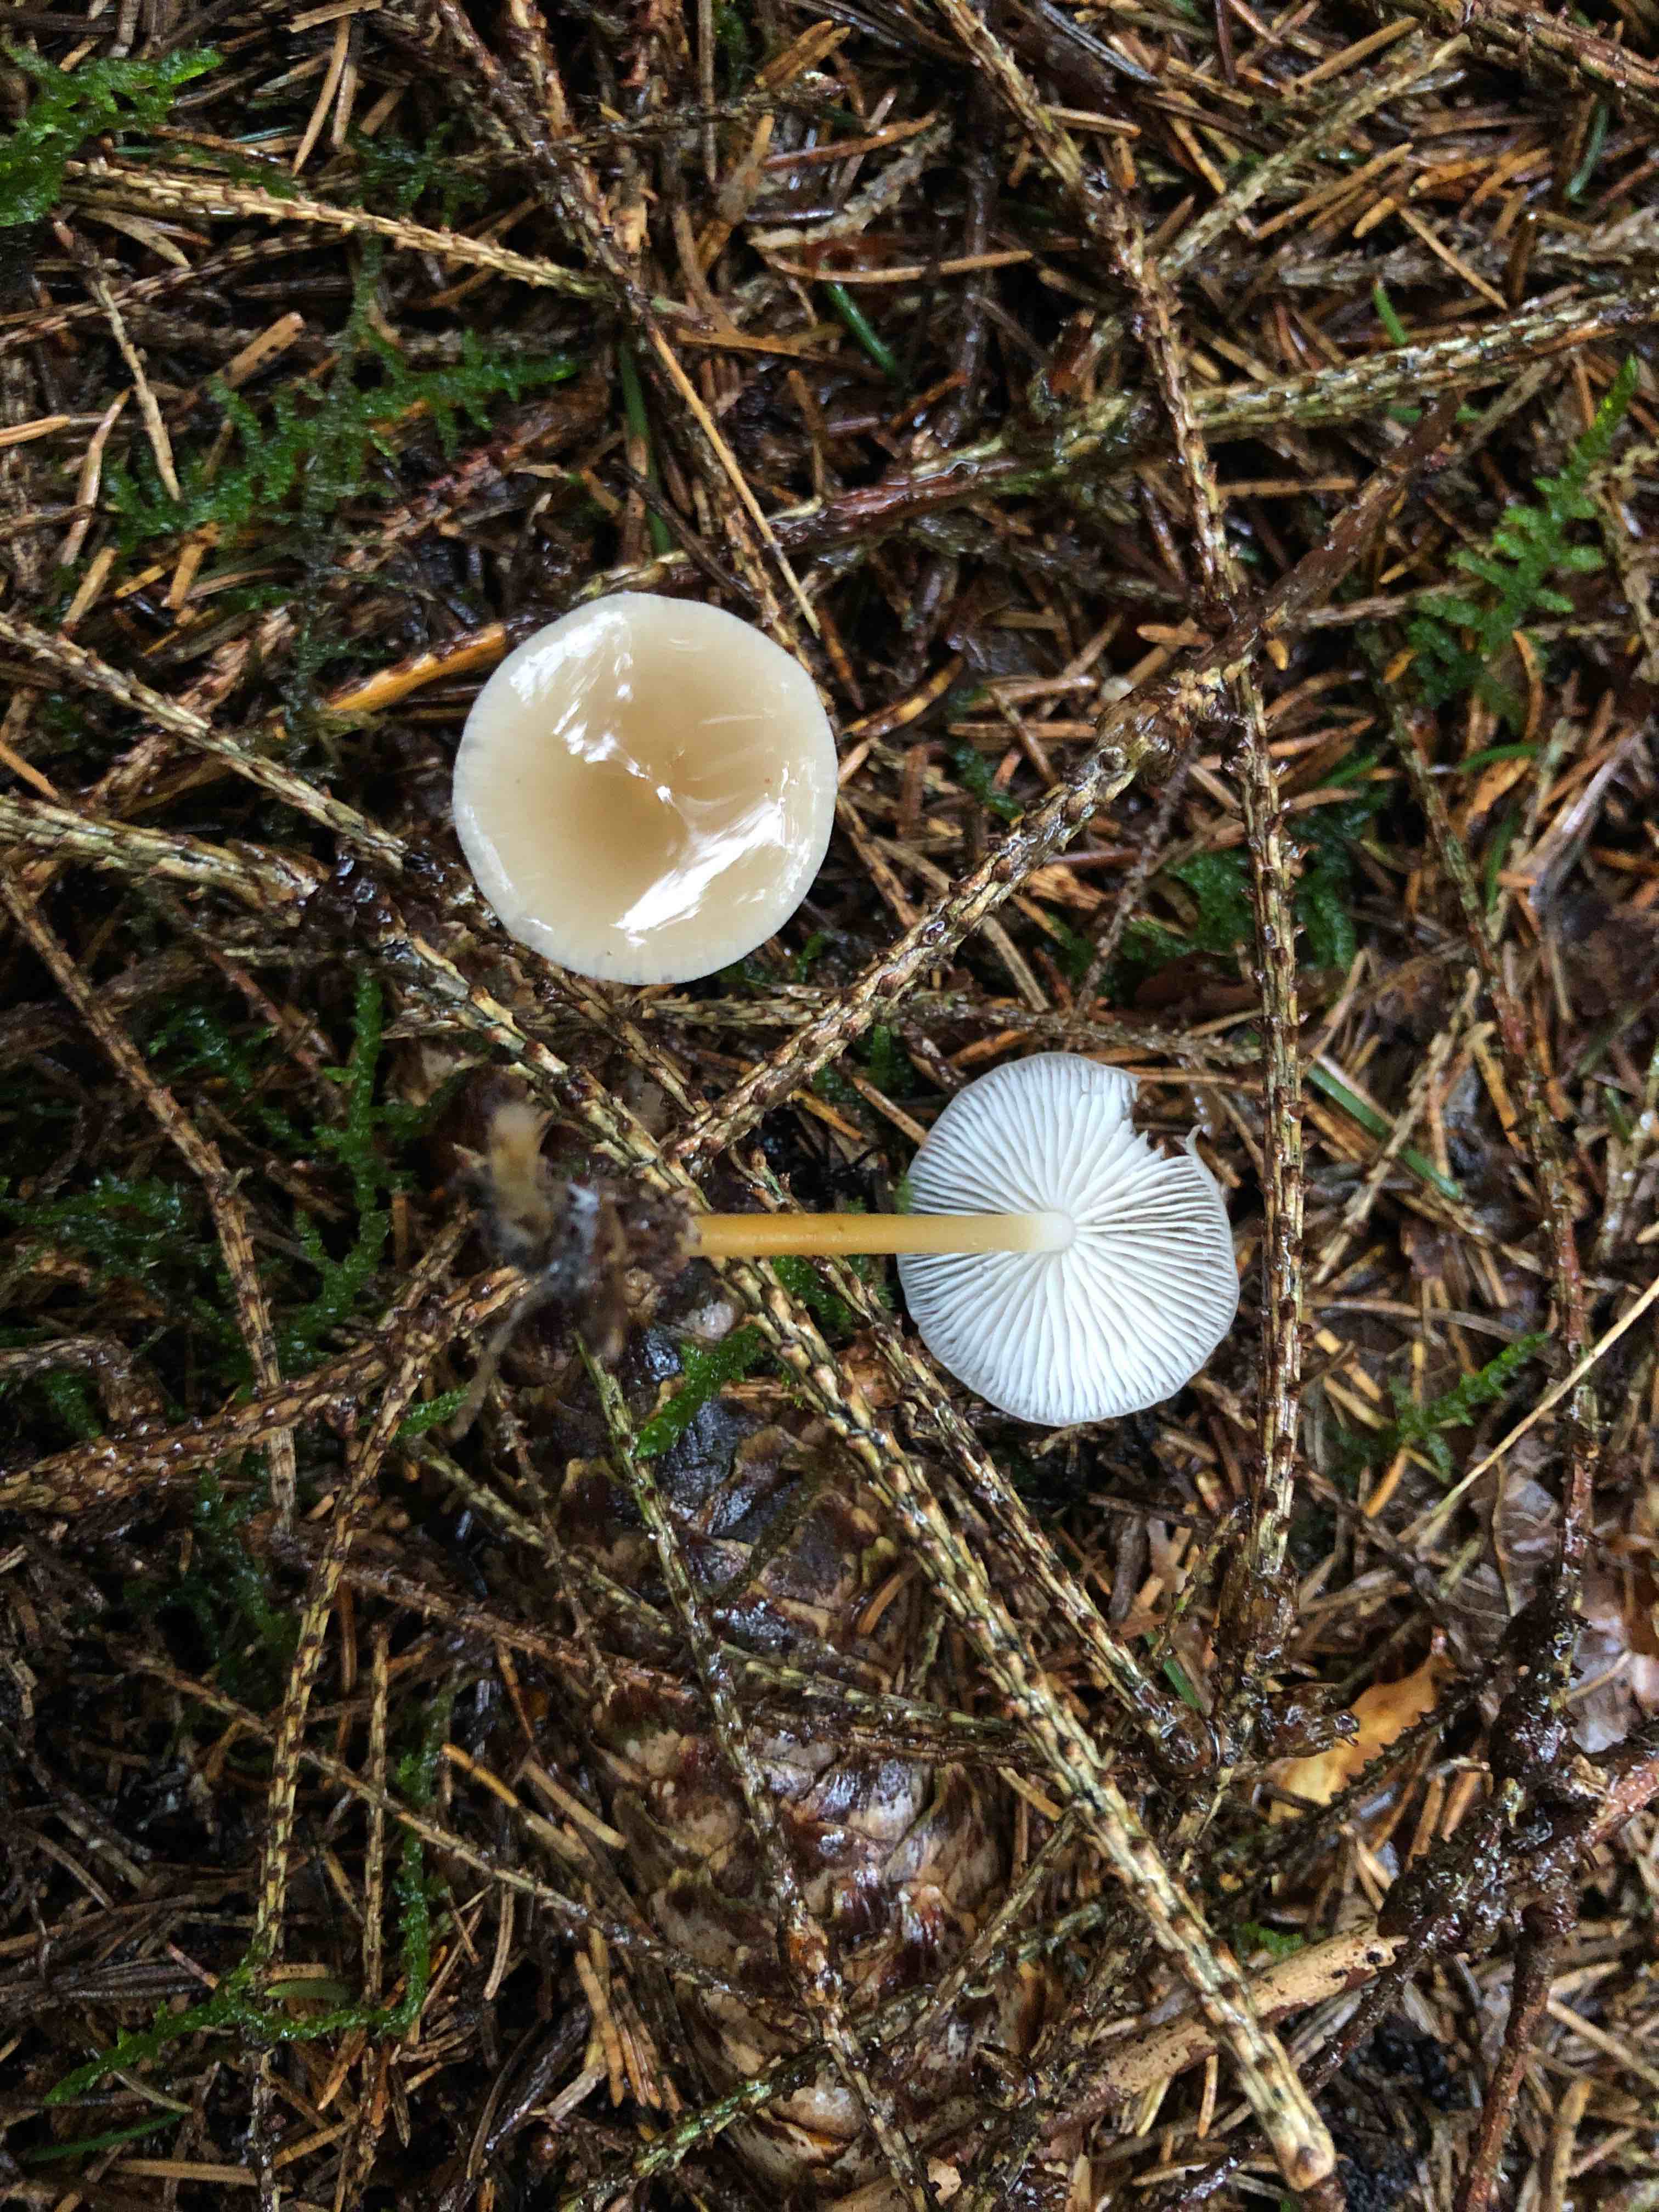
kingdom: Fungi
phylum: Basidiomycota
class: Agaricomycetes
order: Agaricales
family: Physalacriaceae
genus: Strobilurus
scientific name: Strobilurus esculentus
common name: gran-koglehat
